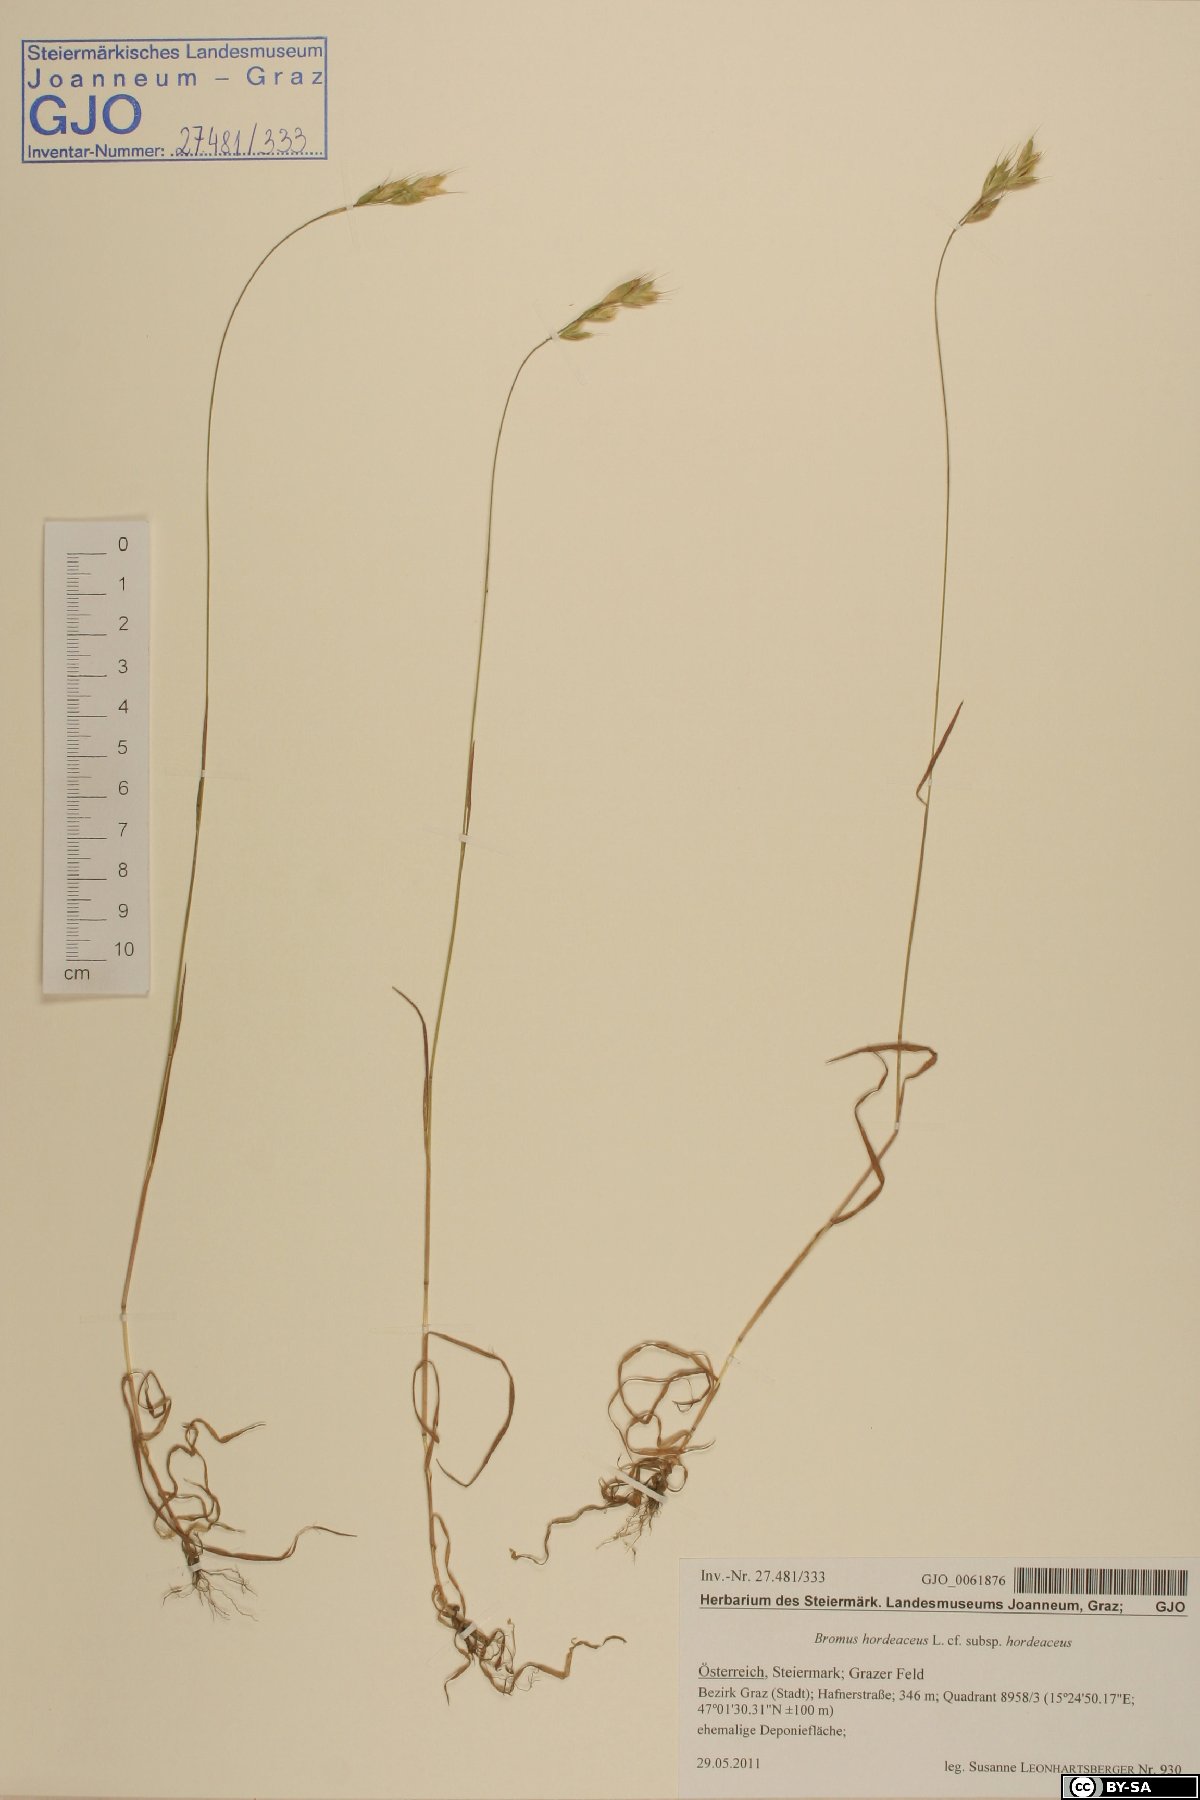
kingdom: Plantae
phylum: Tracheophyta
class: Liliopsida
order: Poales
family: Poaceae
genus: Bromus
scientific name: Bromus hordeaceus
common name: Soft brome
